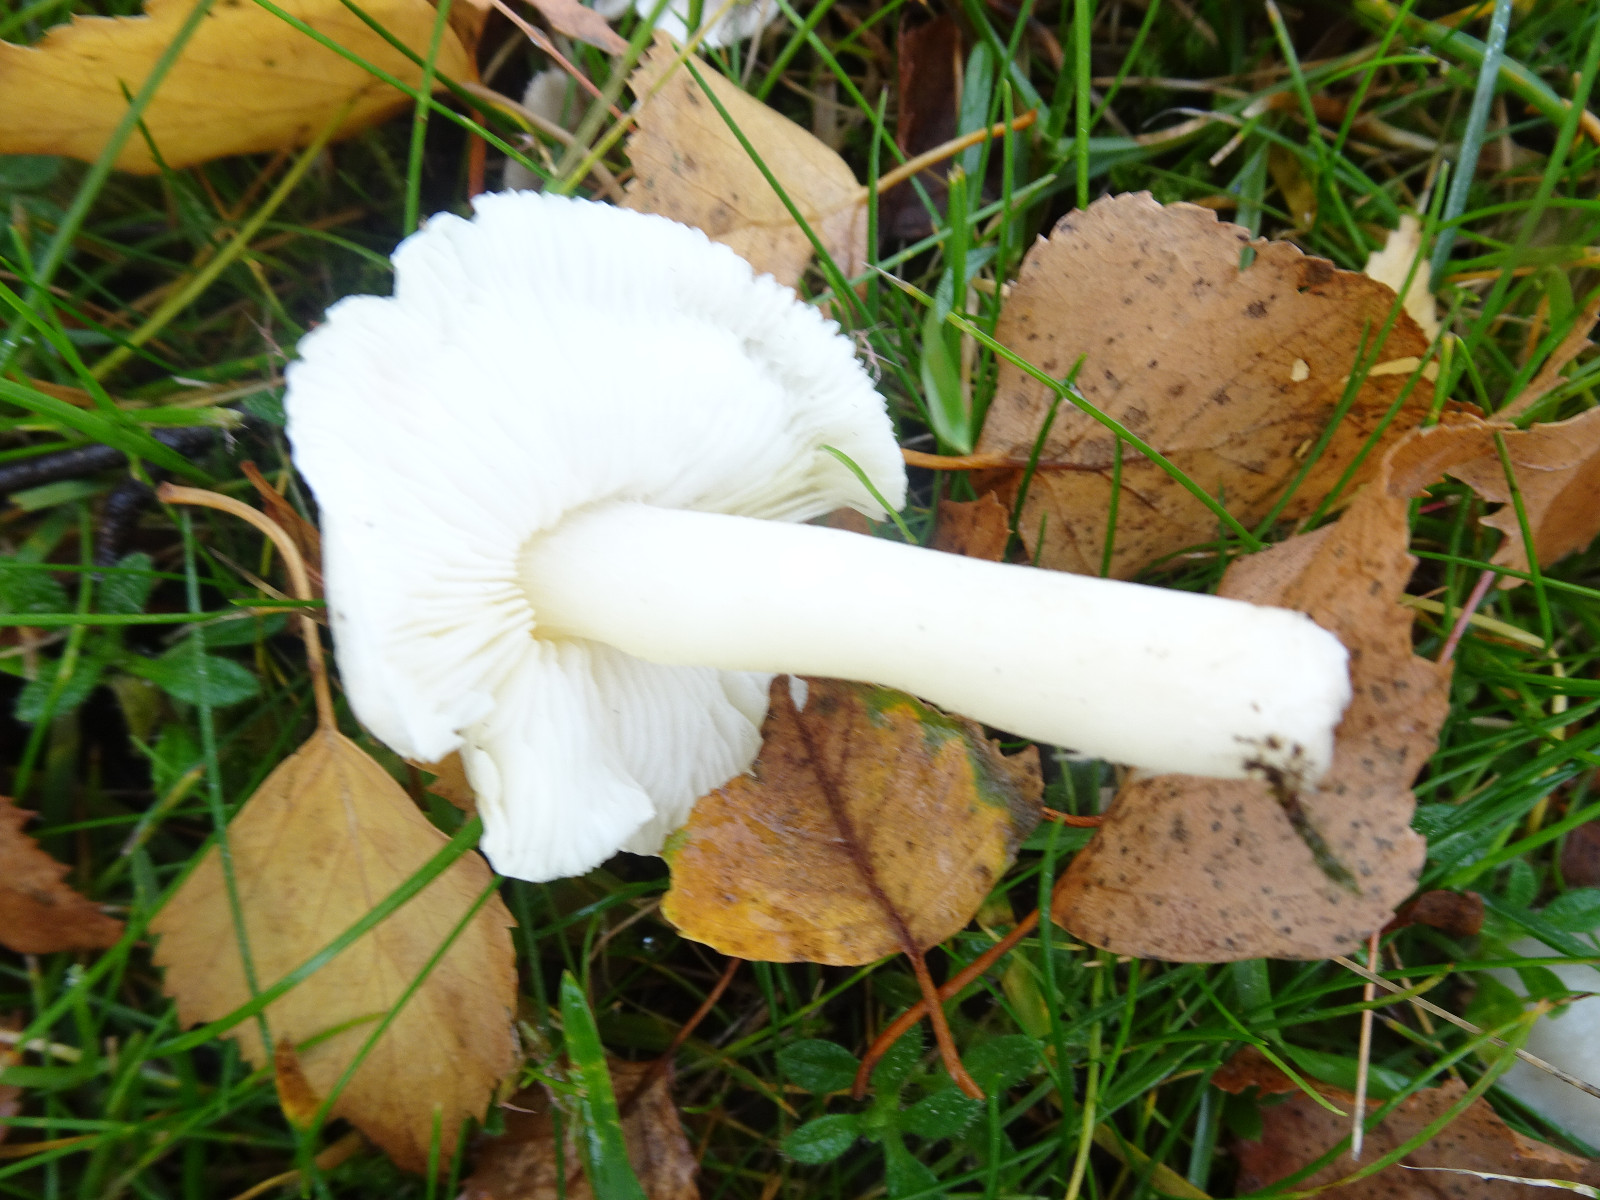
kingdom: Fungi
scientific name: Fungi
